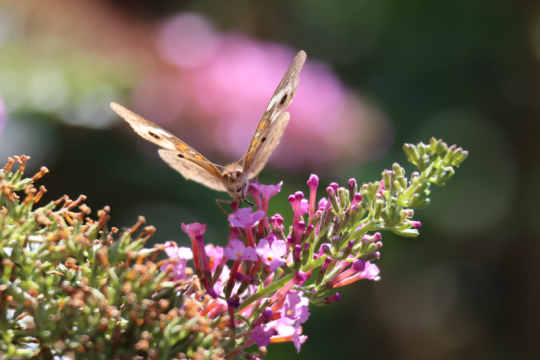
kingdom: Animalia
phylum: Arthropoda
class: Insecta
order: Lepidoptera
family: Nymphalidae
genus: Junonia
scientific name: Junonia coenia
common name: Common Buckeye
